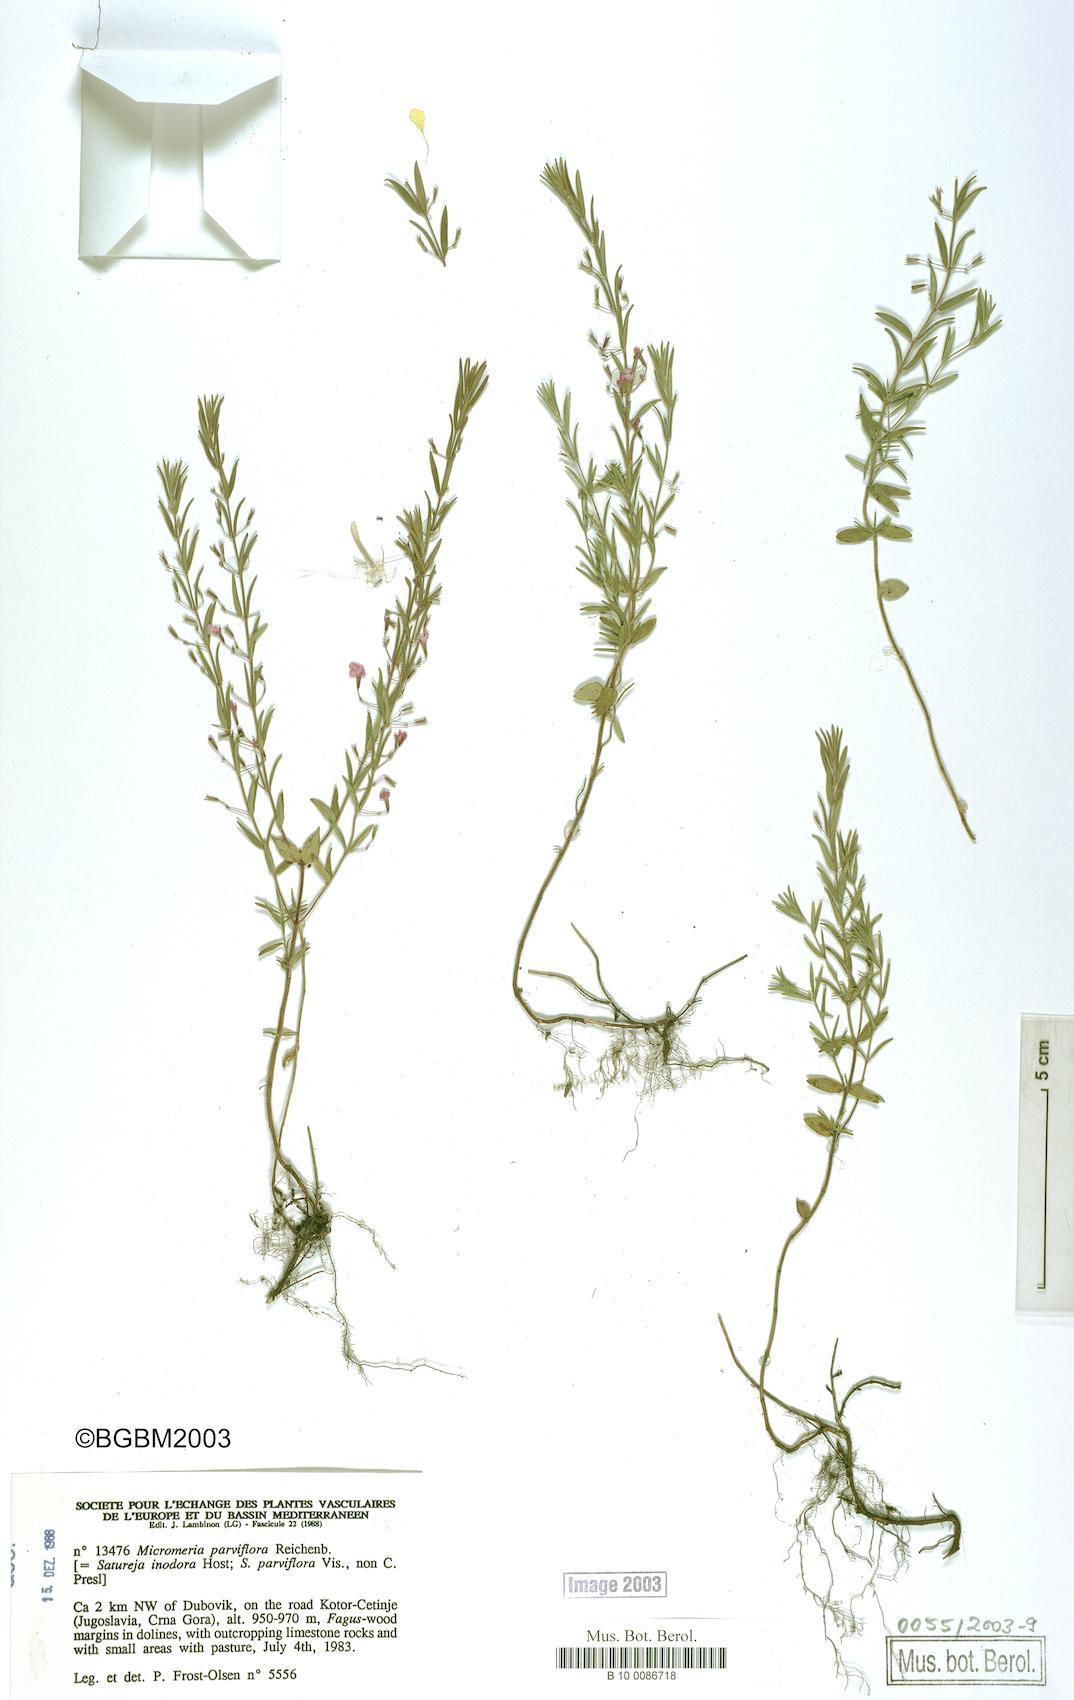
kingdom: Plantae
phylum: Tracheophyta
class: Magnoliopsida
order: Lamiales
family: Lamiaceae
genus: Micromeria
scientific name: Micromeria longipedunculata
